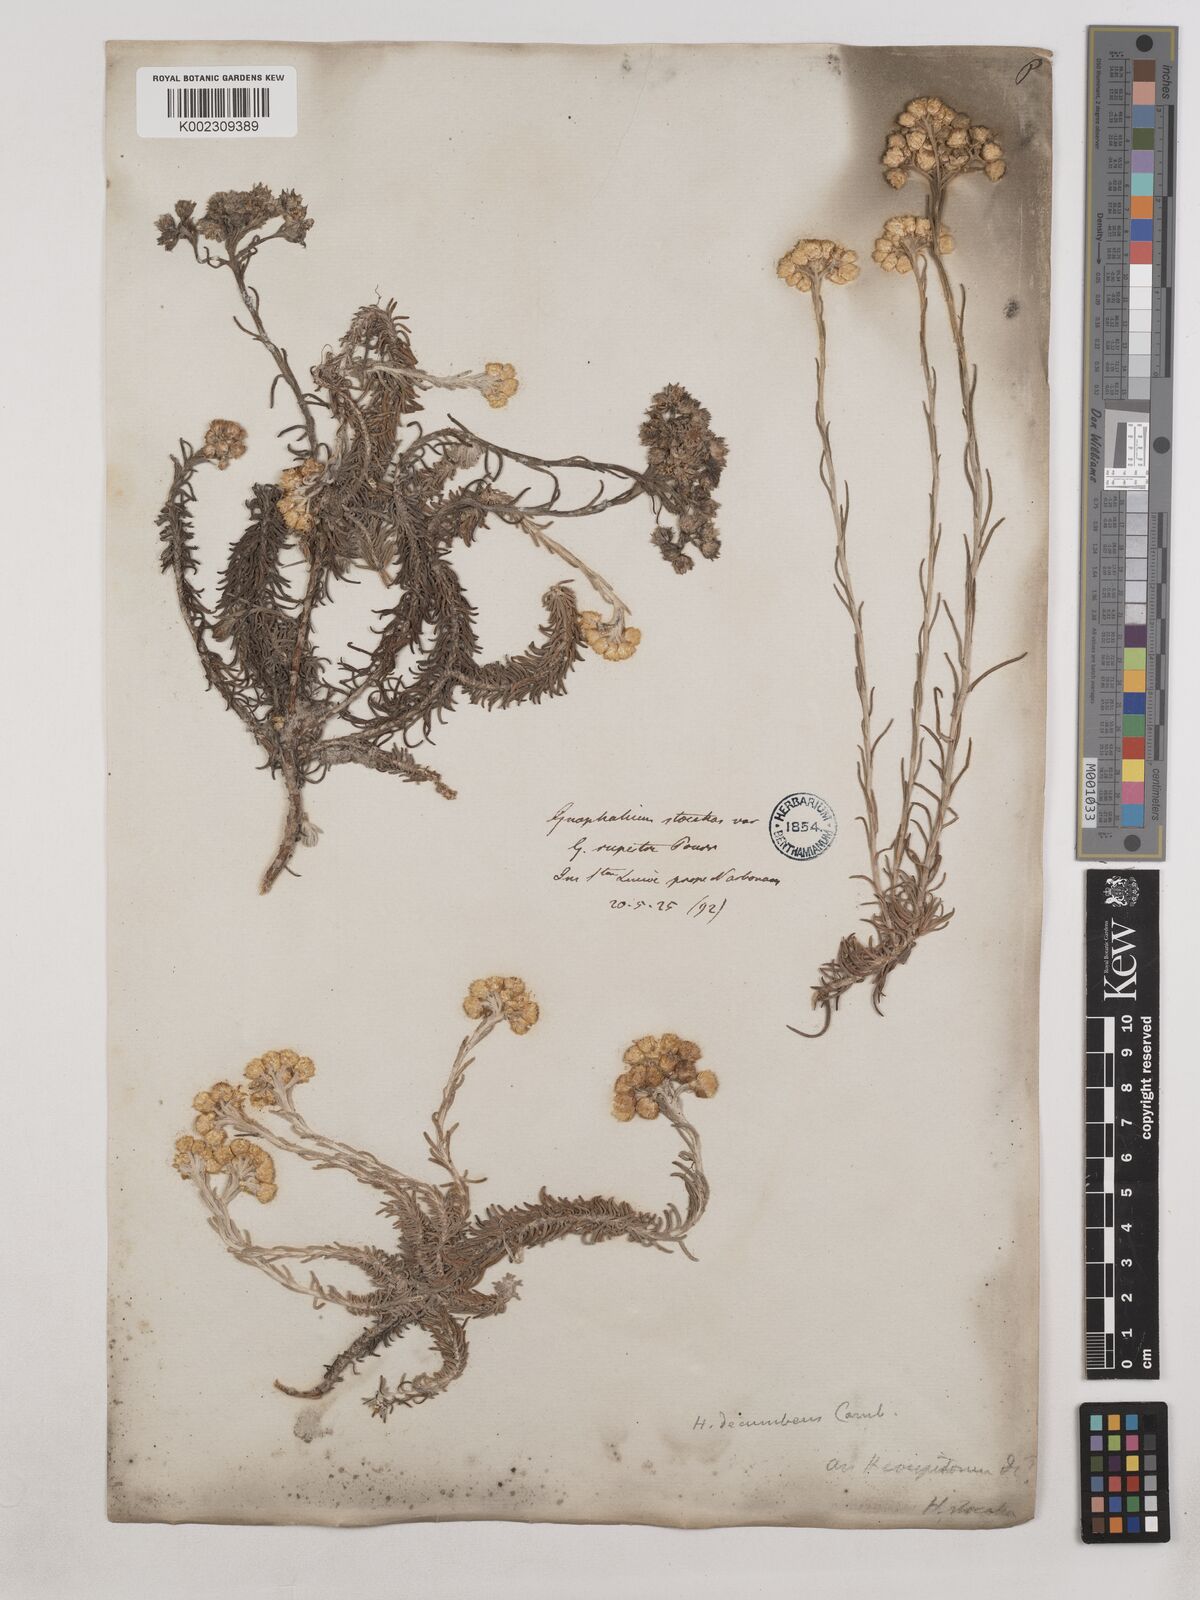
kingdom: Plantae
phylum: Tracheophyta
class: Magnoliopsida
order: Asterales
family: Asteraceae
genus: Helichrysum
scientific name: Helichrysum stoechas
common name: Goldilocks
